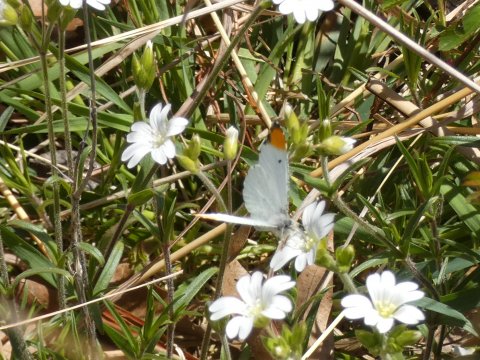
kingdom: Animalia
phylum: Arthropoda
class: Insecta
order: Lepidoptera
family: Pieridae
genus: Anthocharis
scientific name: Anthocharis midea
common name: Falcate Orangetip
